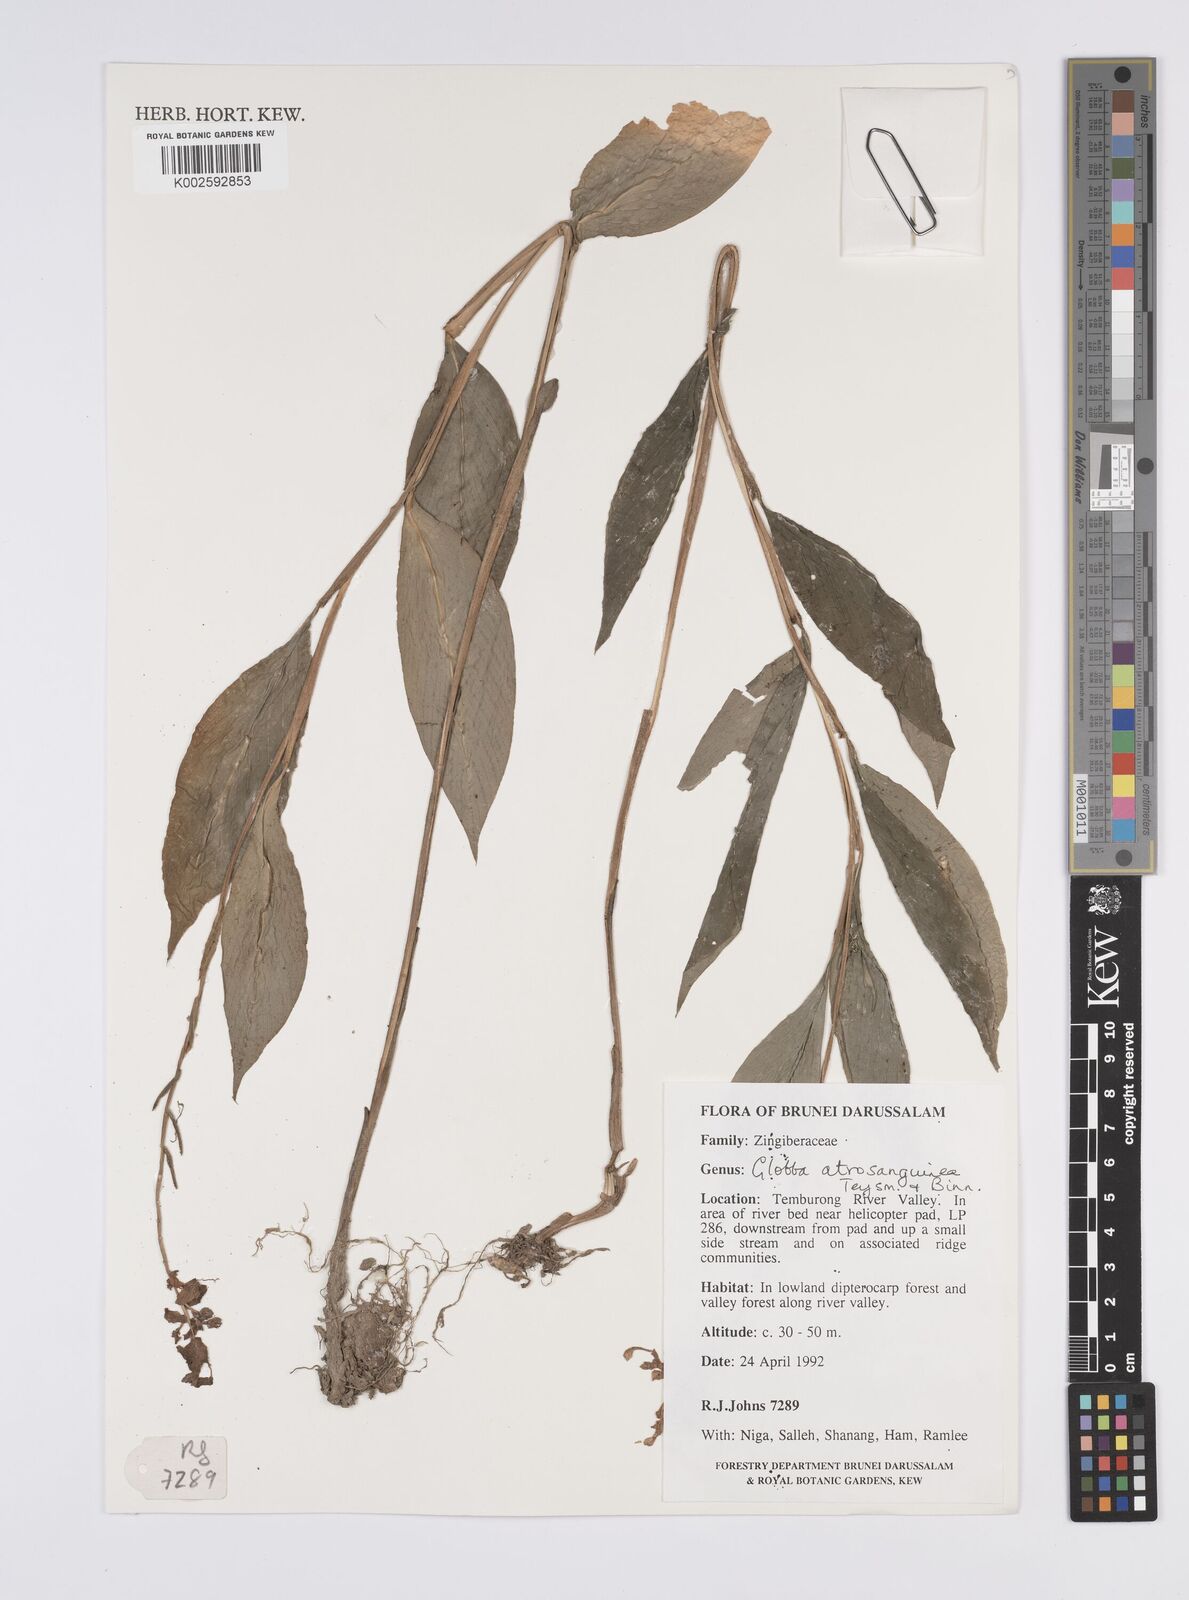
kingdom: Plantae
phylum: Tracheophyta
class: Liliopsida
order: Zingiberales
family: Zingiberaceae
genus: Globba
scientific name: Globba atrosanguinea
